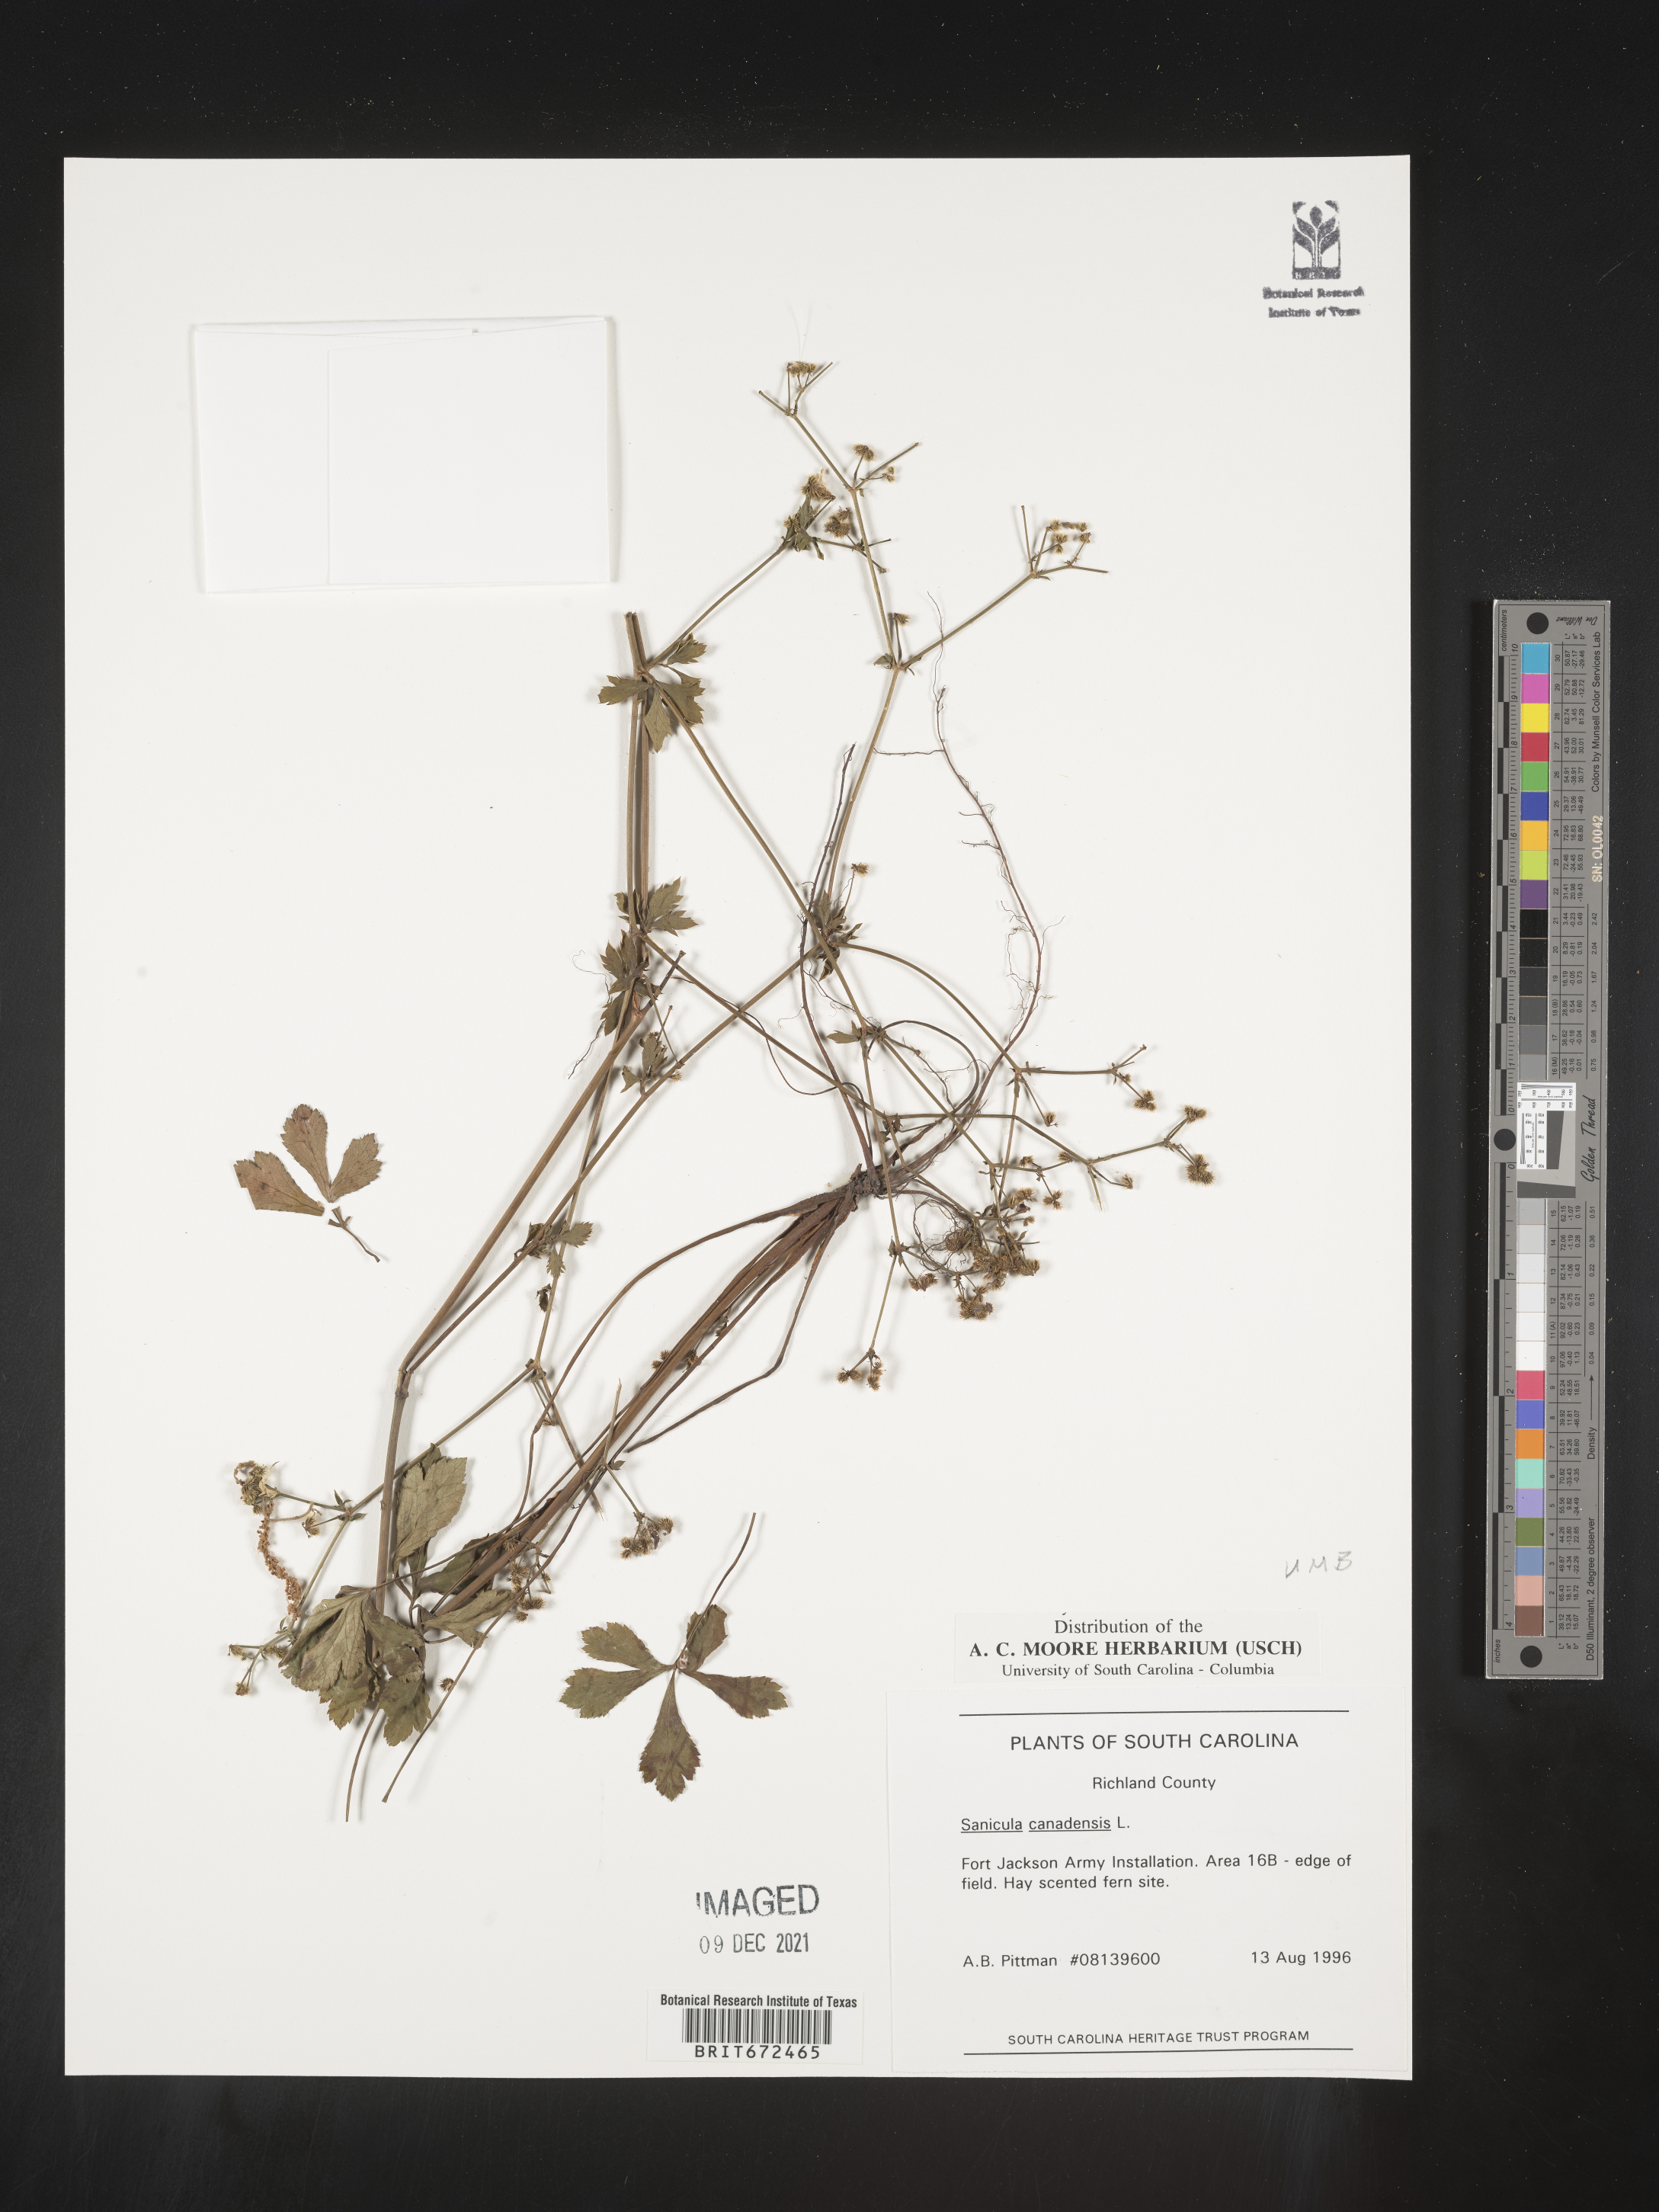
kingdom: Plantae
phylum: Tracheophyta
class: Magnoliopsida
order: Apiales
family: Apiaceae
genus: Sanicula
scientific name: Sanicula canadensis
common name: Canada sanicle
